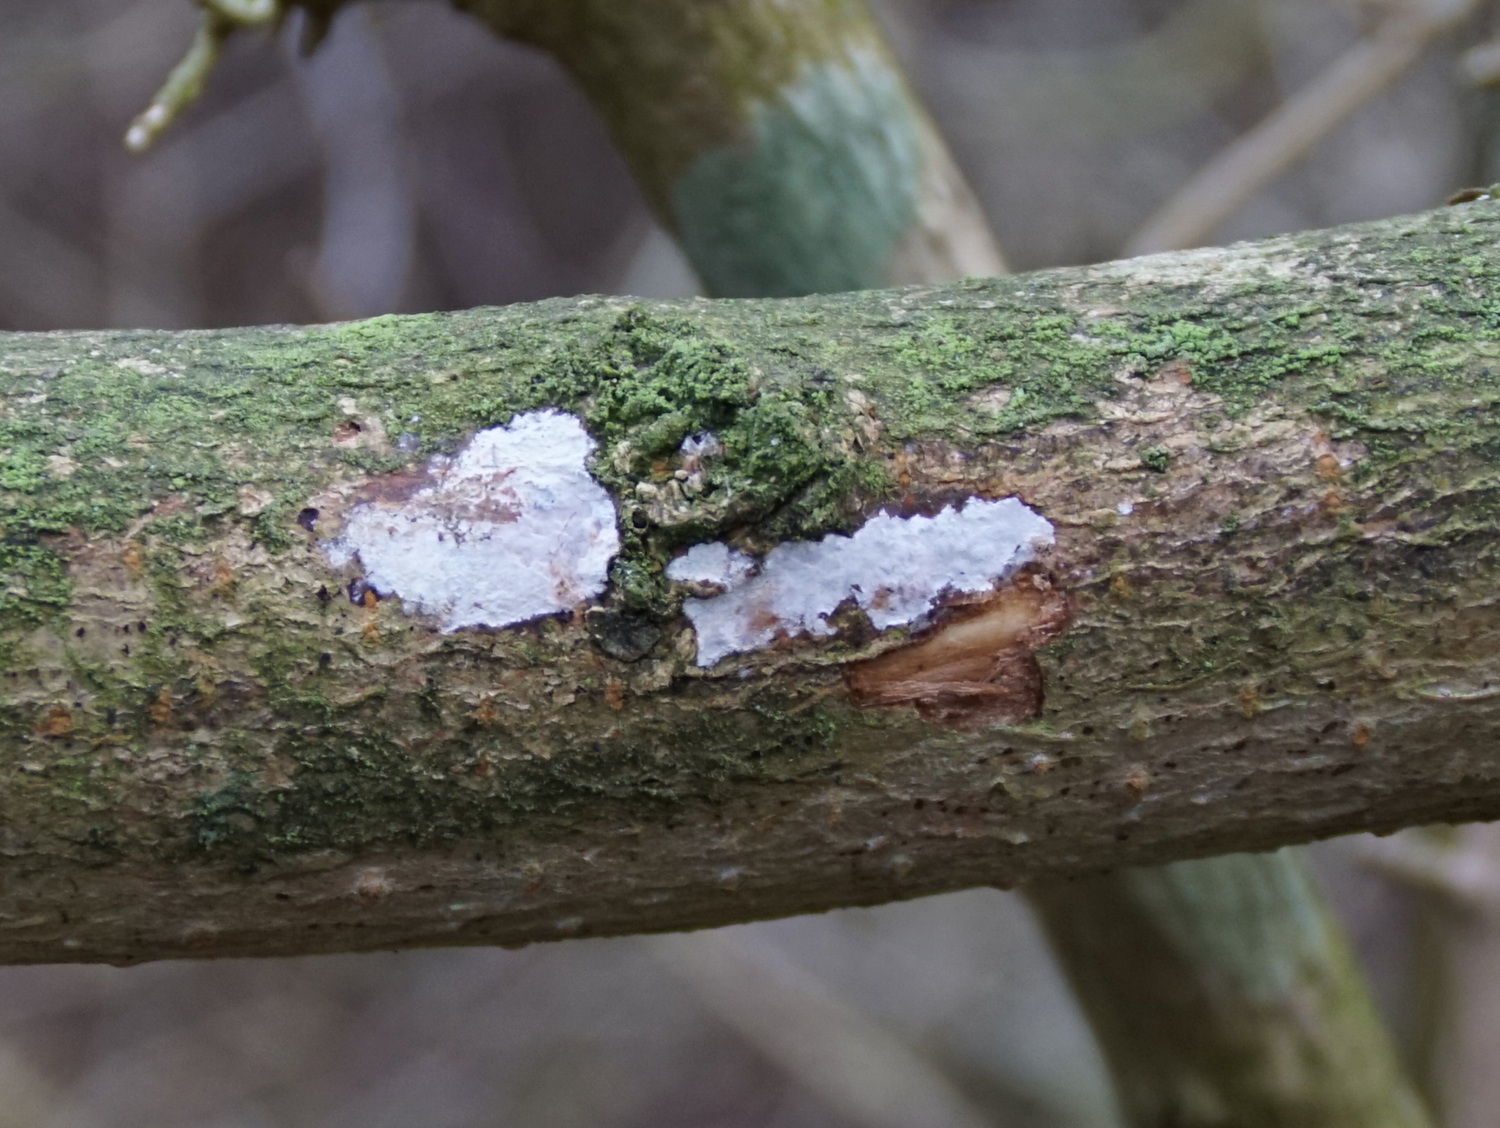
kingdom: Fungi
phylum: Basidiomycota
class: Agaricomycetes
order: Auriculariales
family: Auriculariaceae
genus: Alloexidiopsis
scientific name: Alloexidiopsis calcea
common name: kalkhvid bævrehinde
